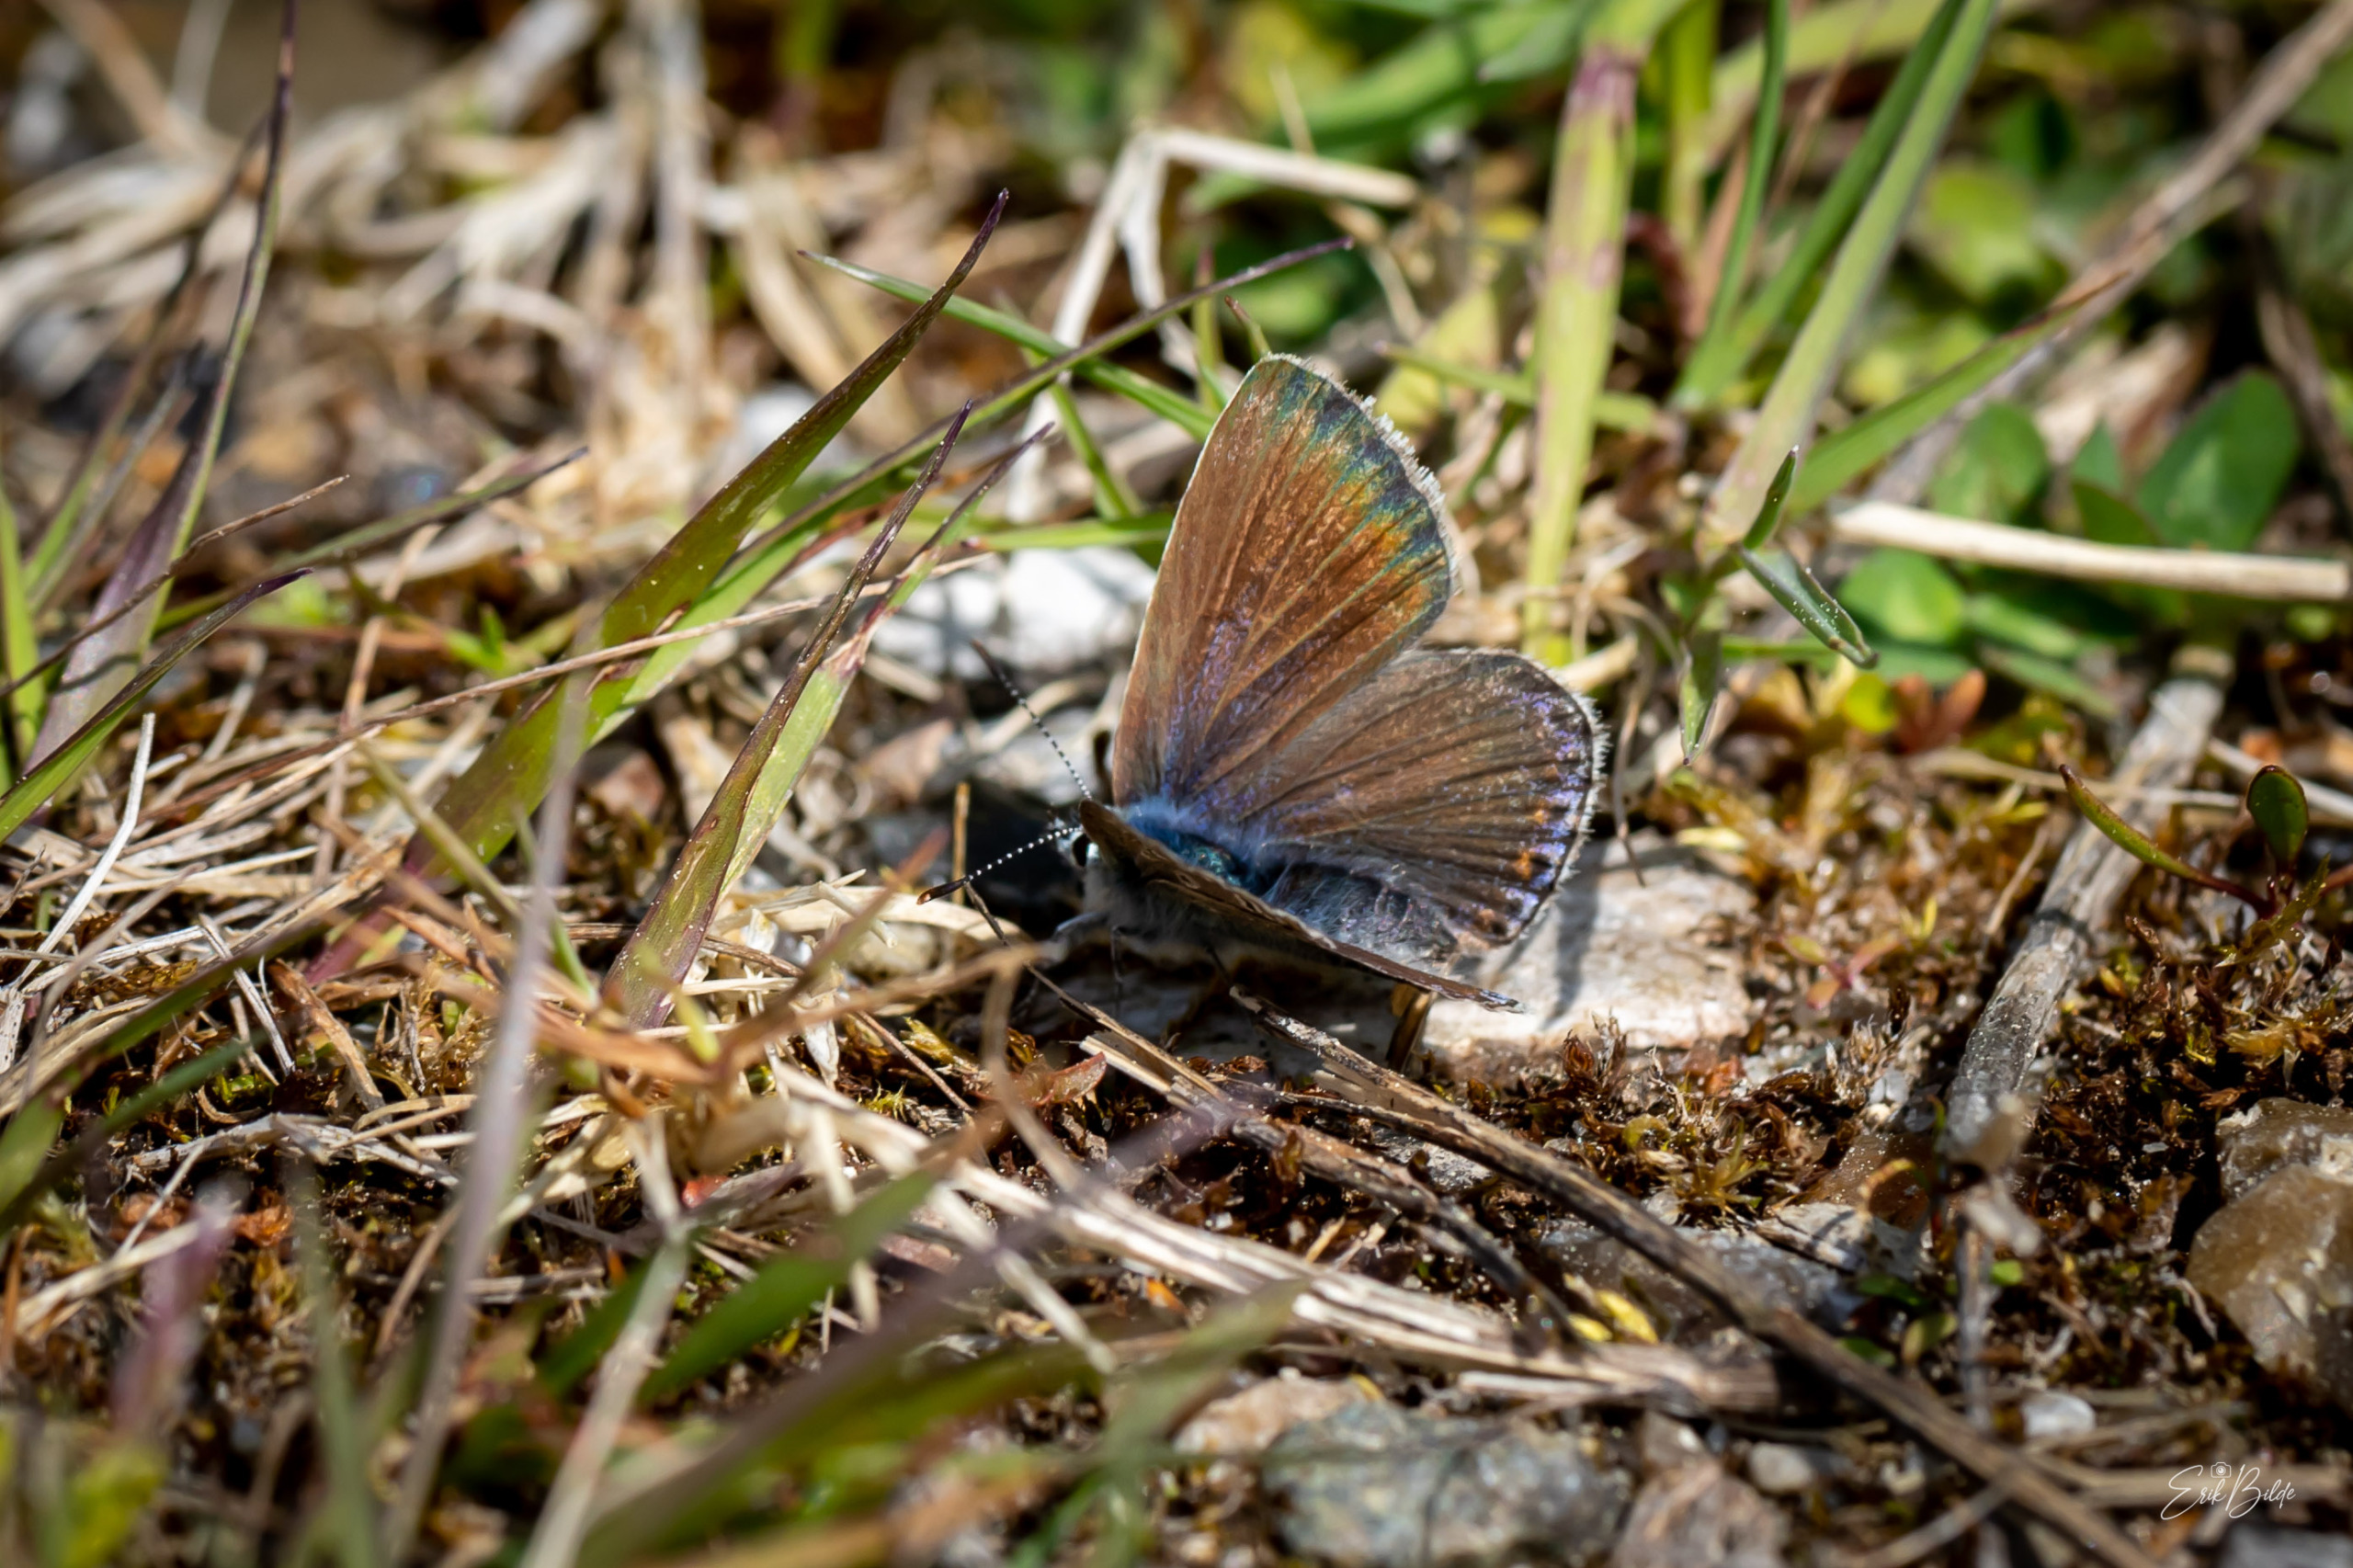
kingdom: Animalia
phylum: Arthropoda
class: Insecta
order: Lepidoptera
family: Lycaenidae
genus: Polyommatus
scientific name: Polyommatus icarus
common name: Almindelig blåfugl
